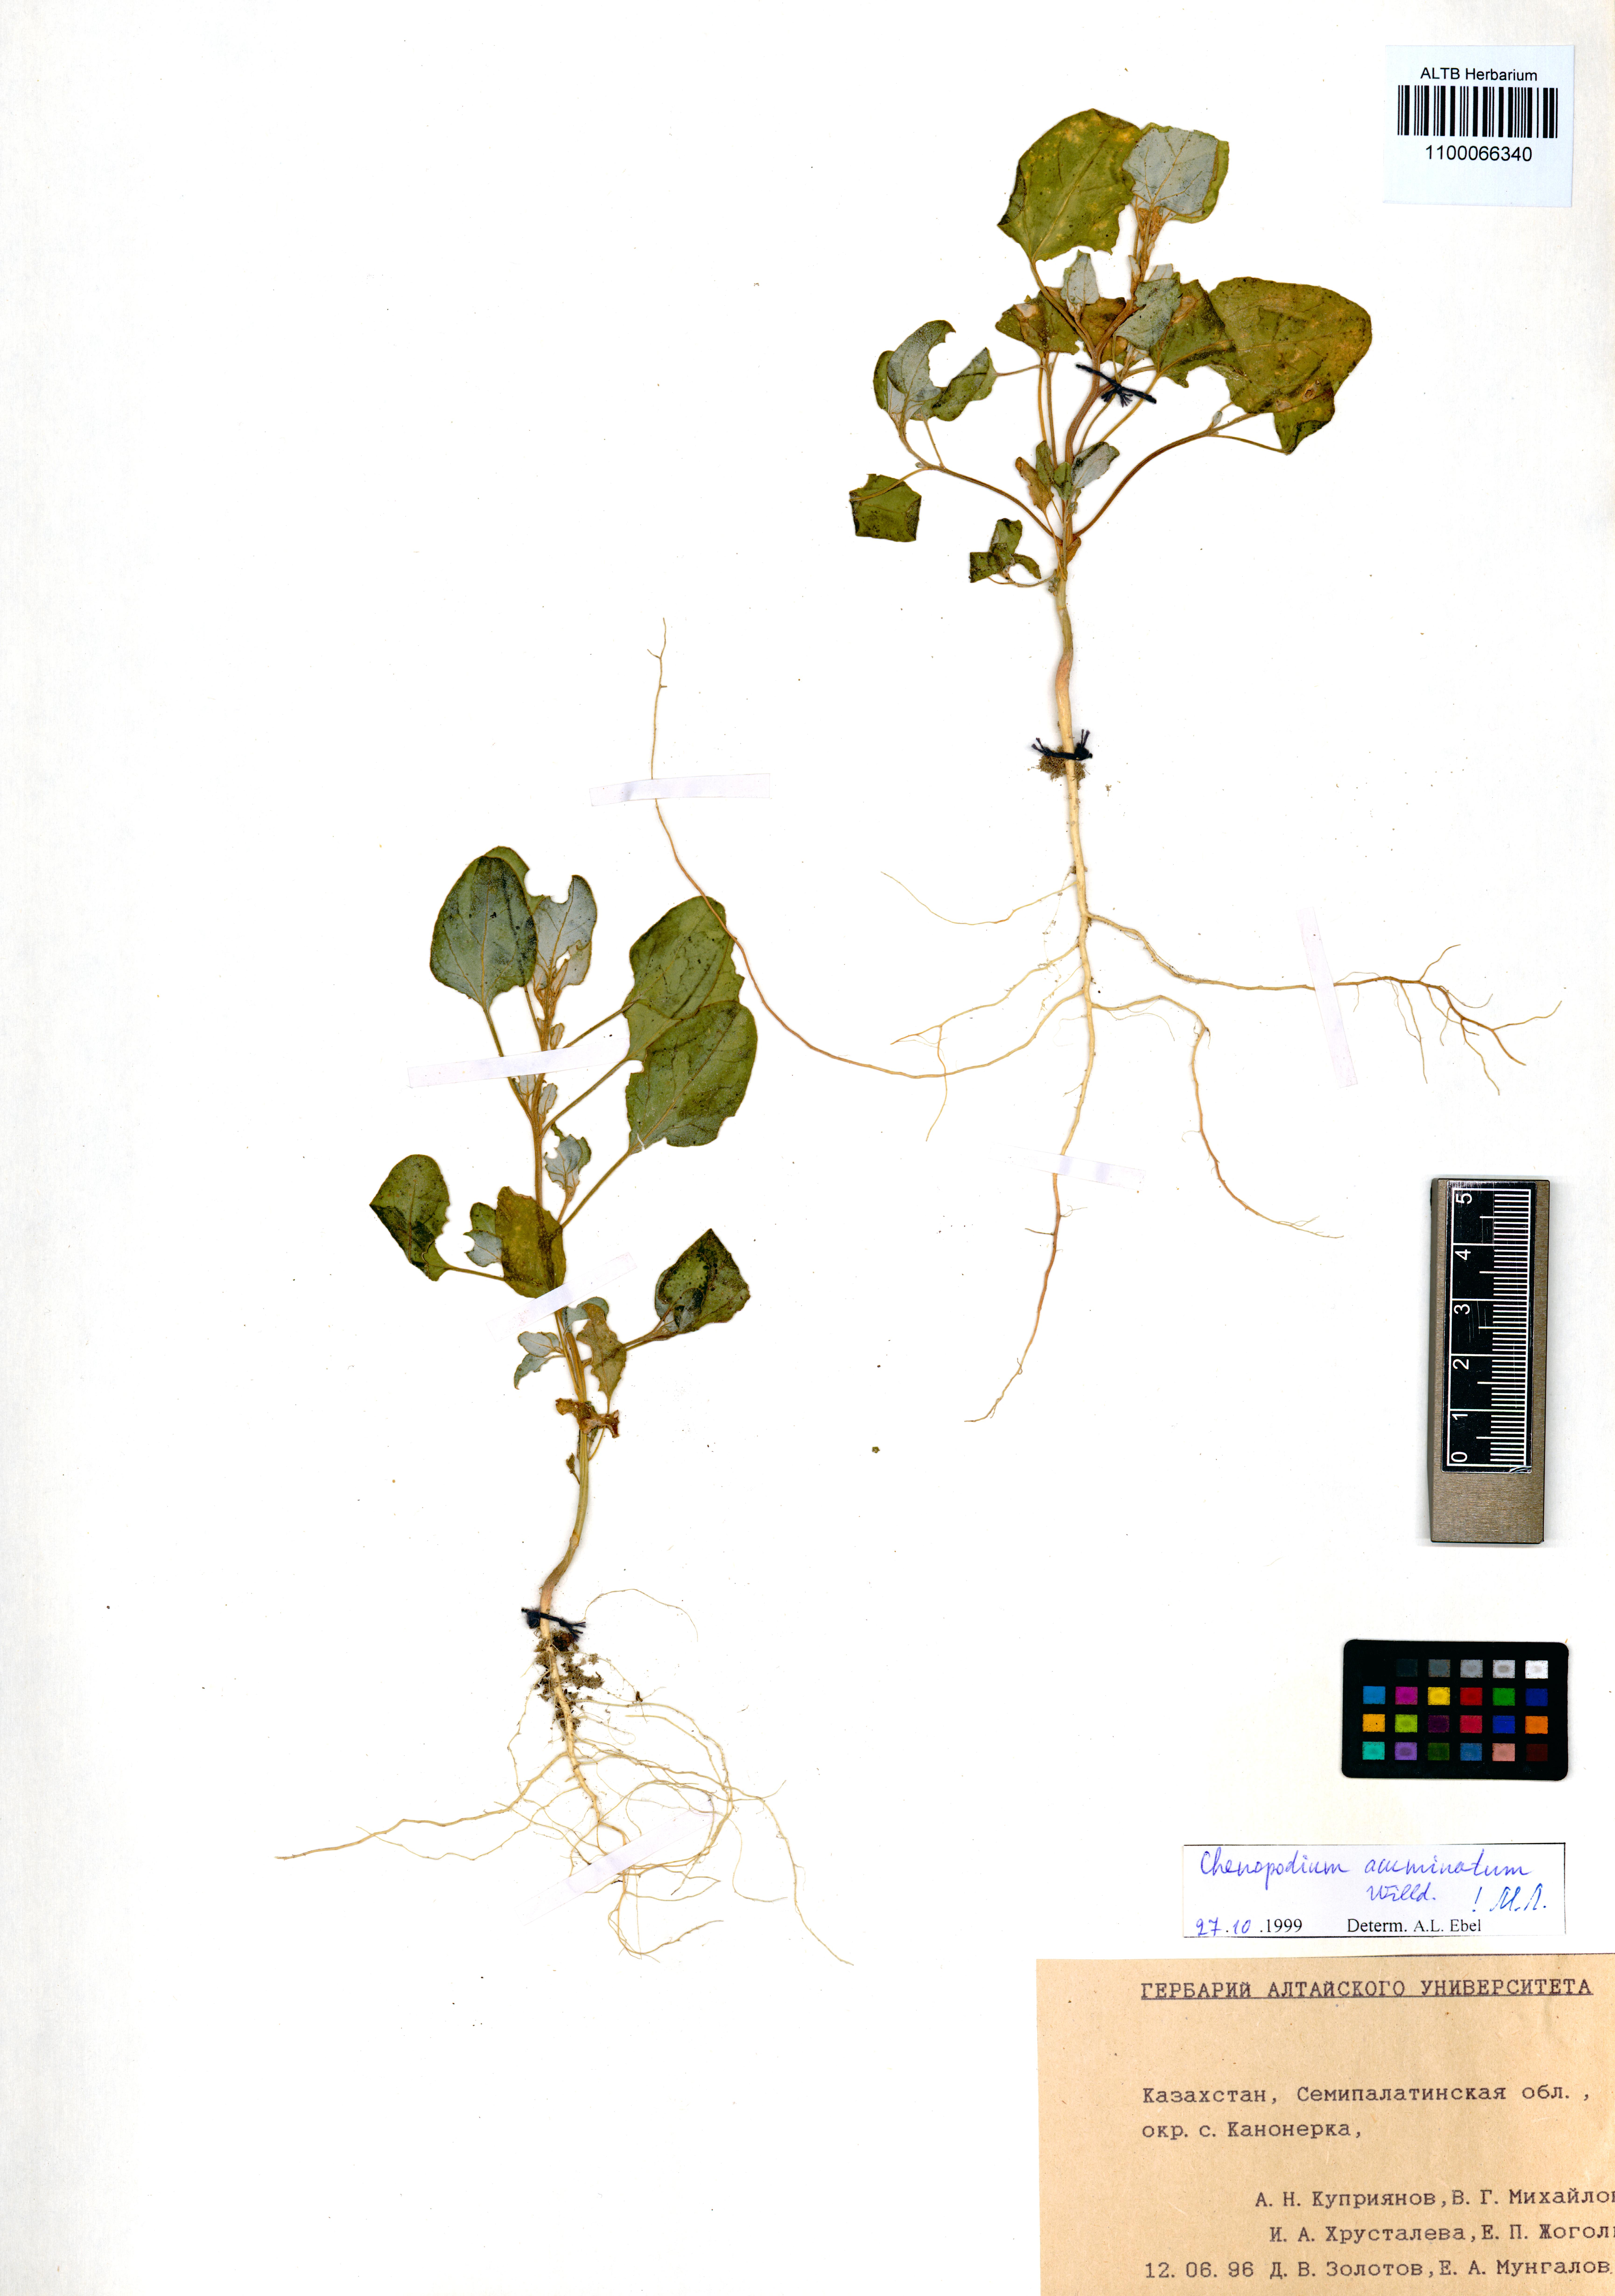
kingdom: Plantae
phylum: Tracheophyta
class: Magnoliopsida
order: Caryophyllales
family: Amaranthaceae
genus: Chenopodium
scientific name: Chenopodium acuminatum
